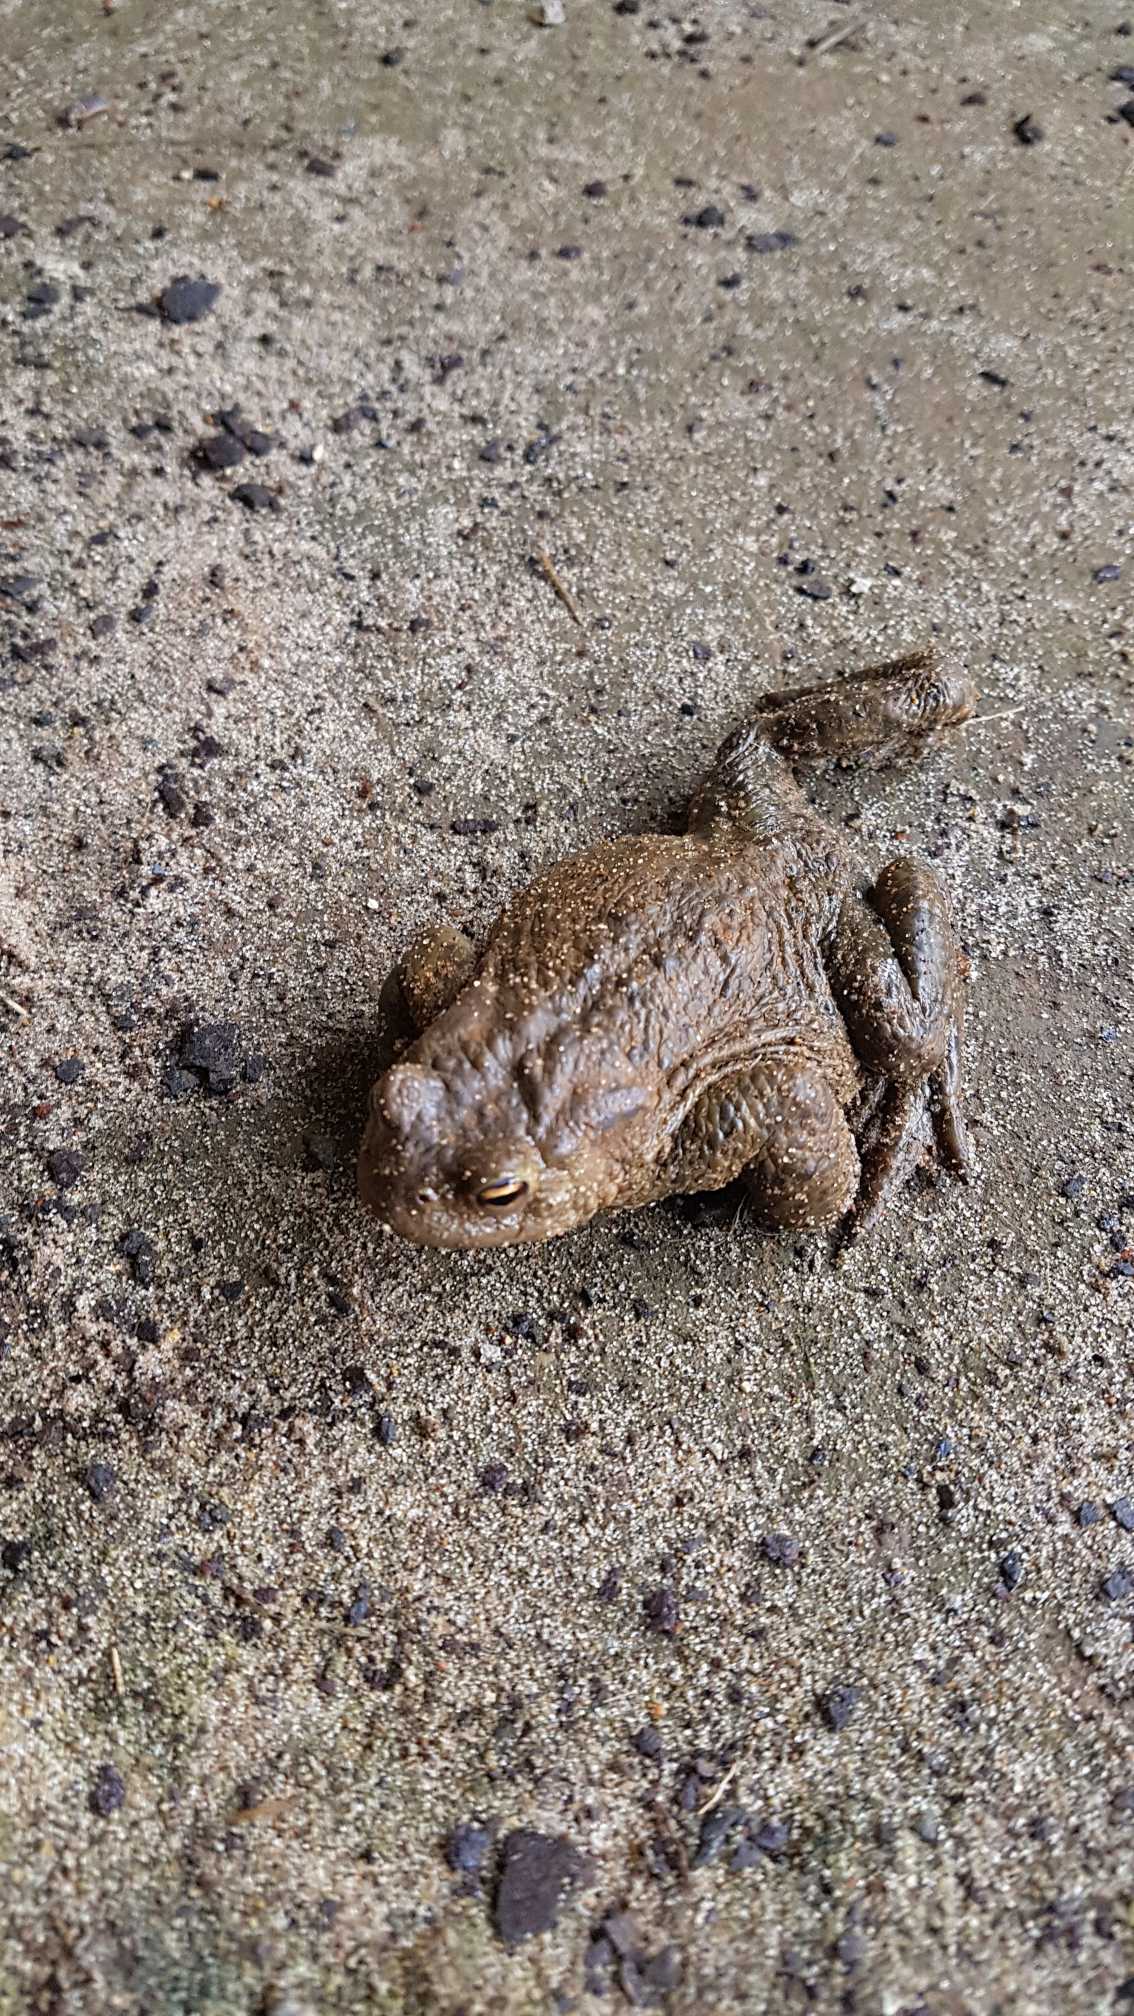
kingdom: Animalia
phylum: Chordata
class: Amphibia
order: Anura
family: Bufonidae
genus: Bufo
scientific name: Bufo bufo
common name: Skrubtudse
